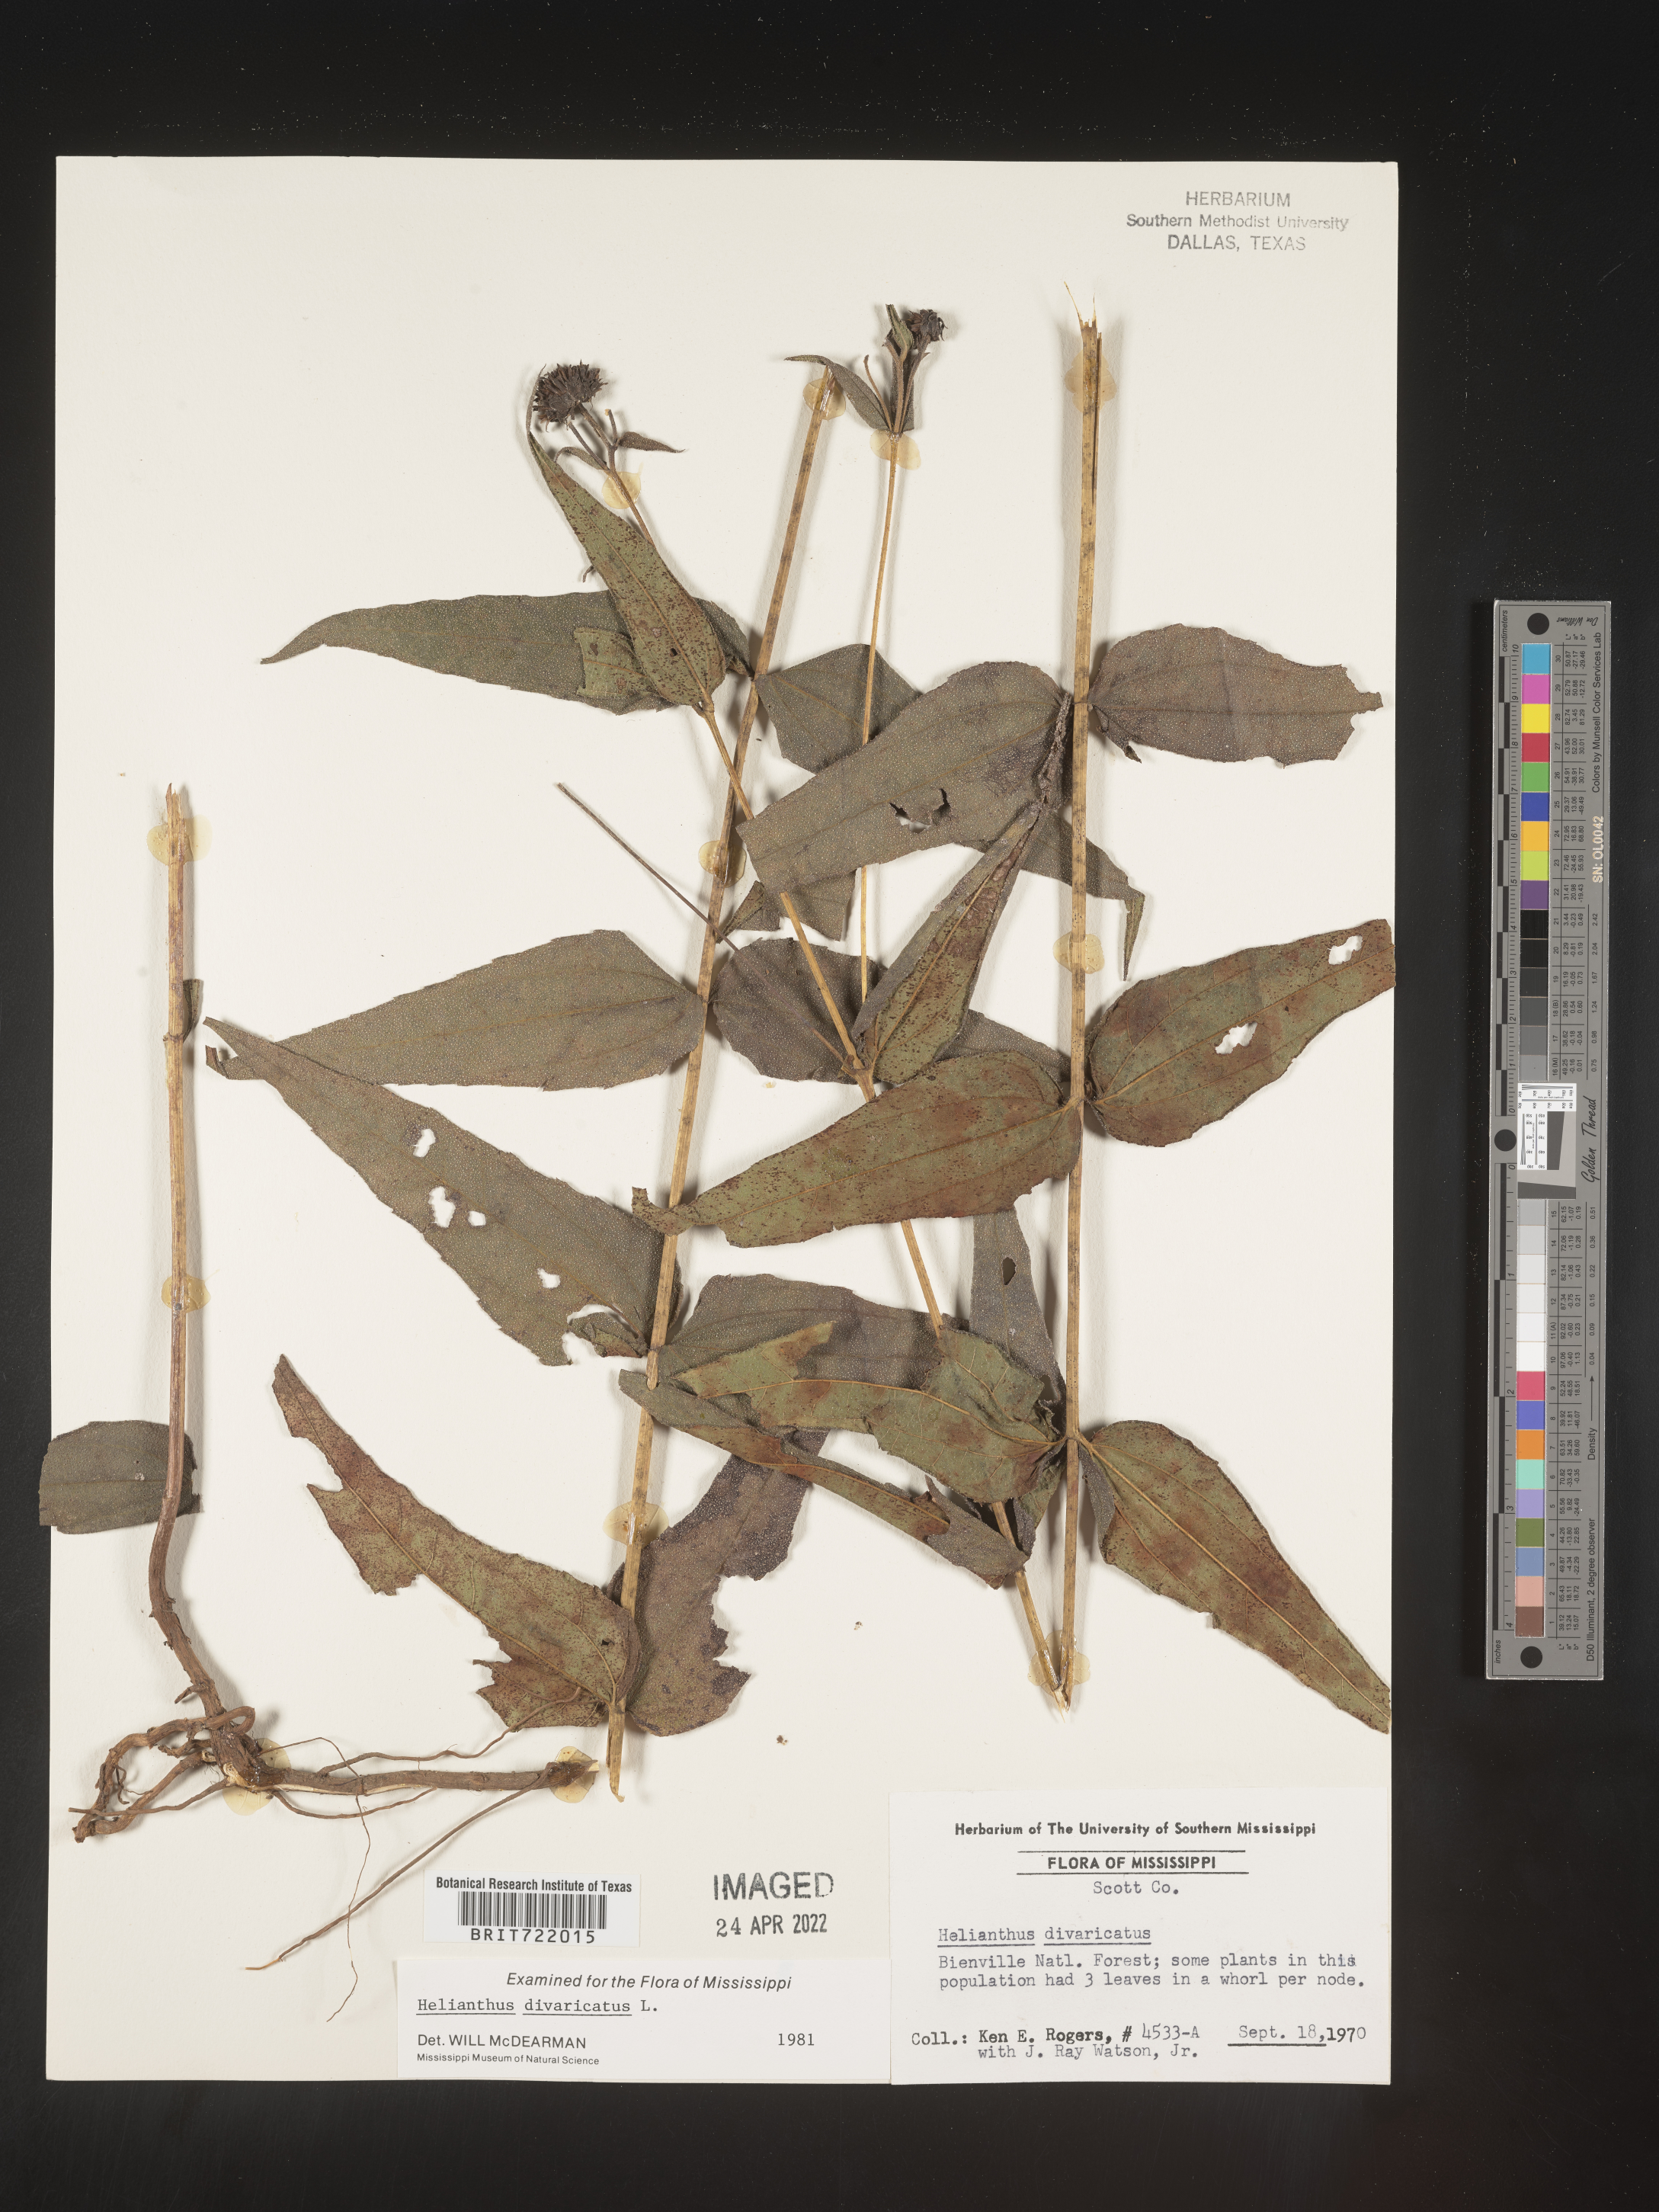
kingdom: Plantae
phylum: Tracheophyta
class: Magnoliopsida
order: Asterales
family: Asteraceae
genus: Helianthus
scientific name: Helianthus divaricatus
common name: Divergent sunflower
